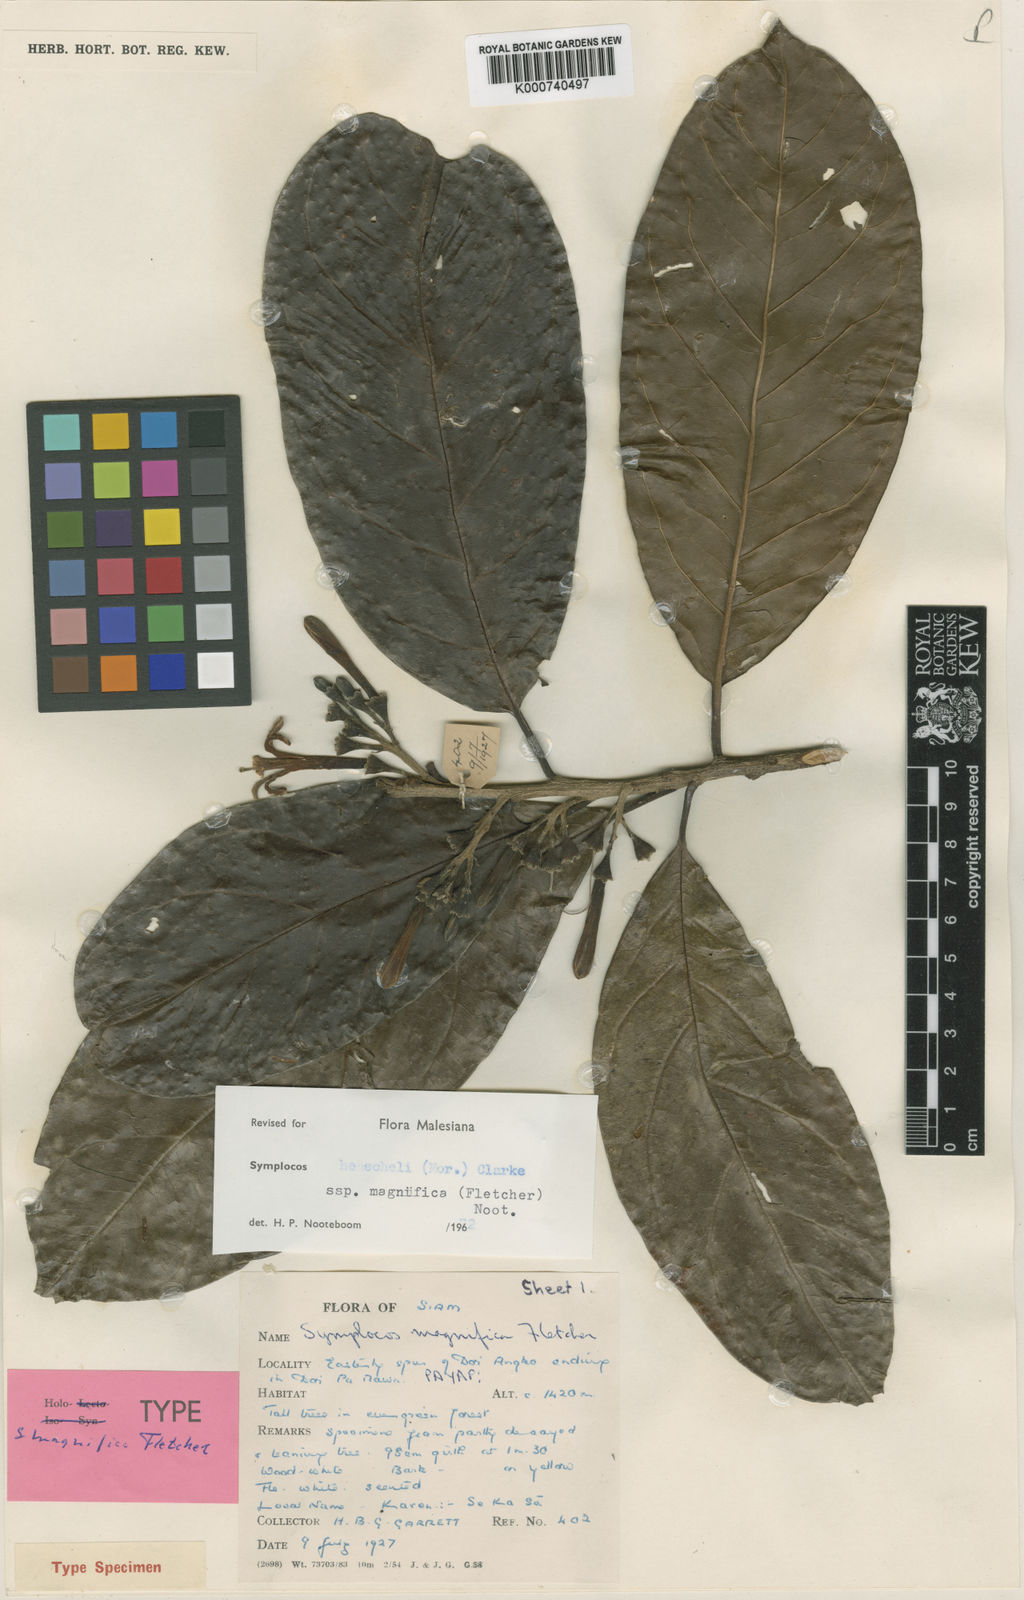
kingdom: Plantae
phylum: Tracheophyta
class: Magnoliopsida
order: Ericales
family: Symplocaceae
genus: Symplocos
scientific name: Symplocos henschelii
